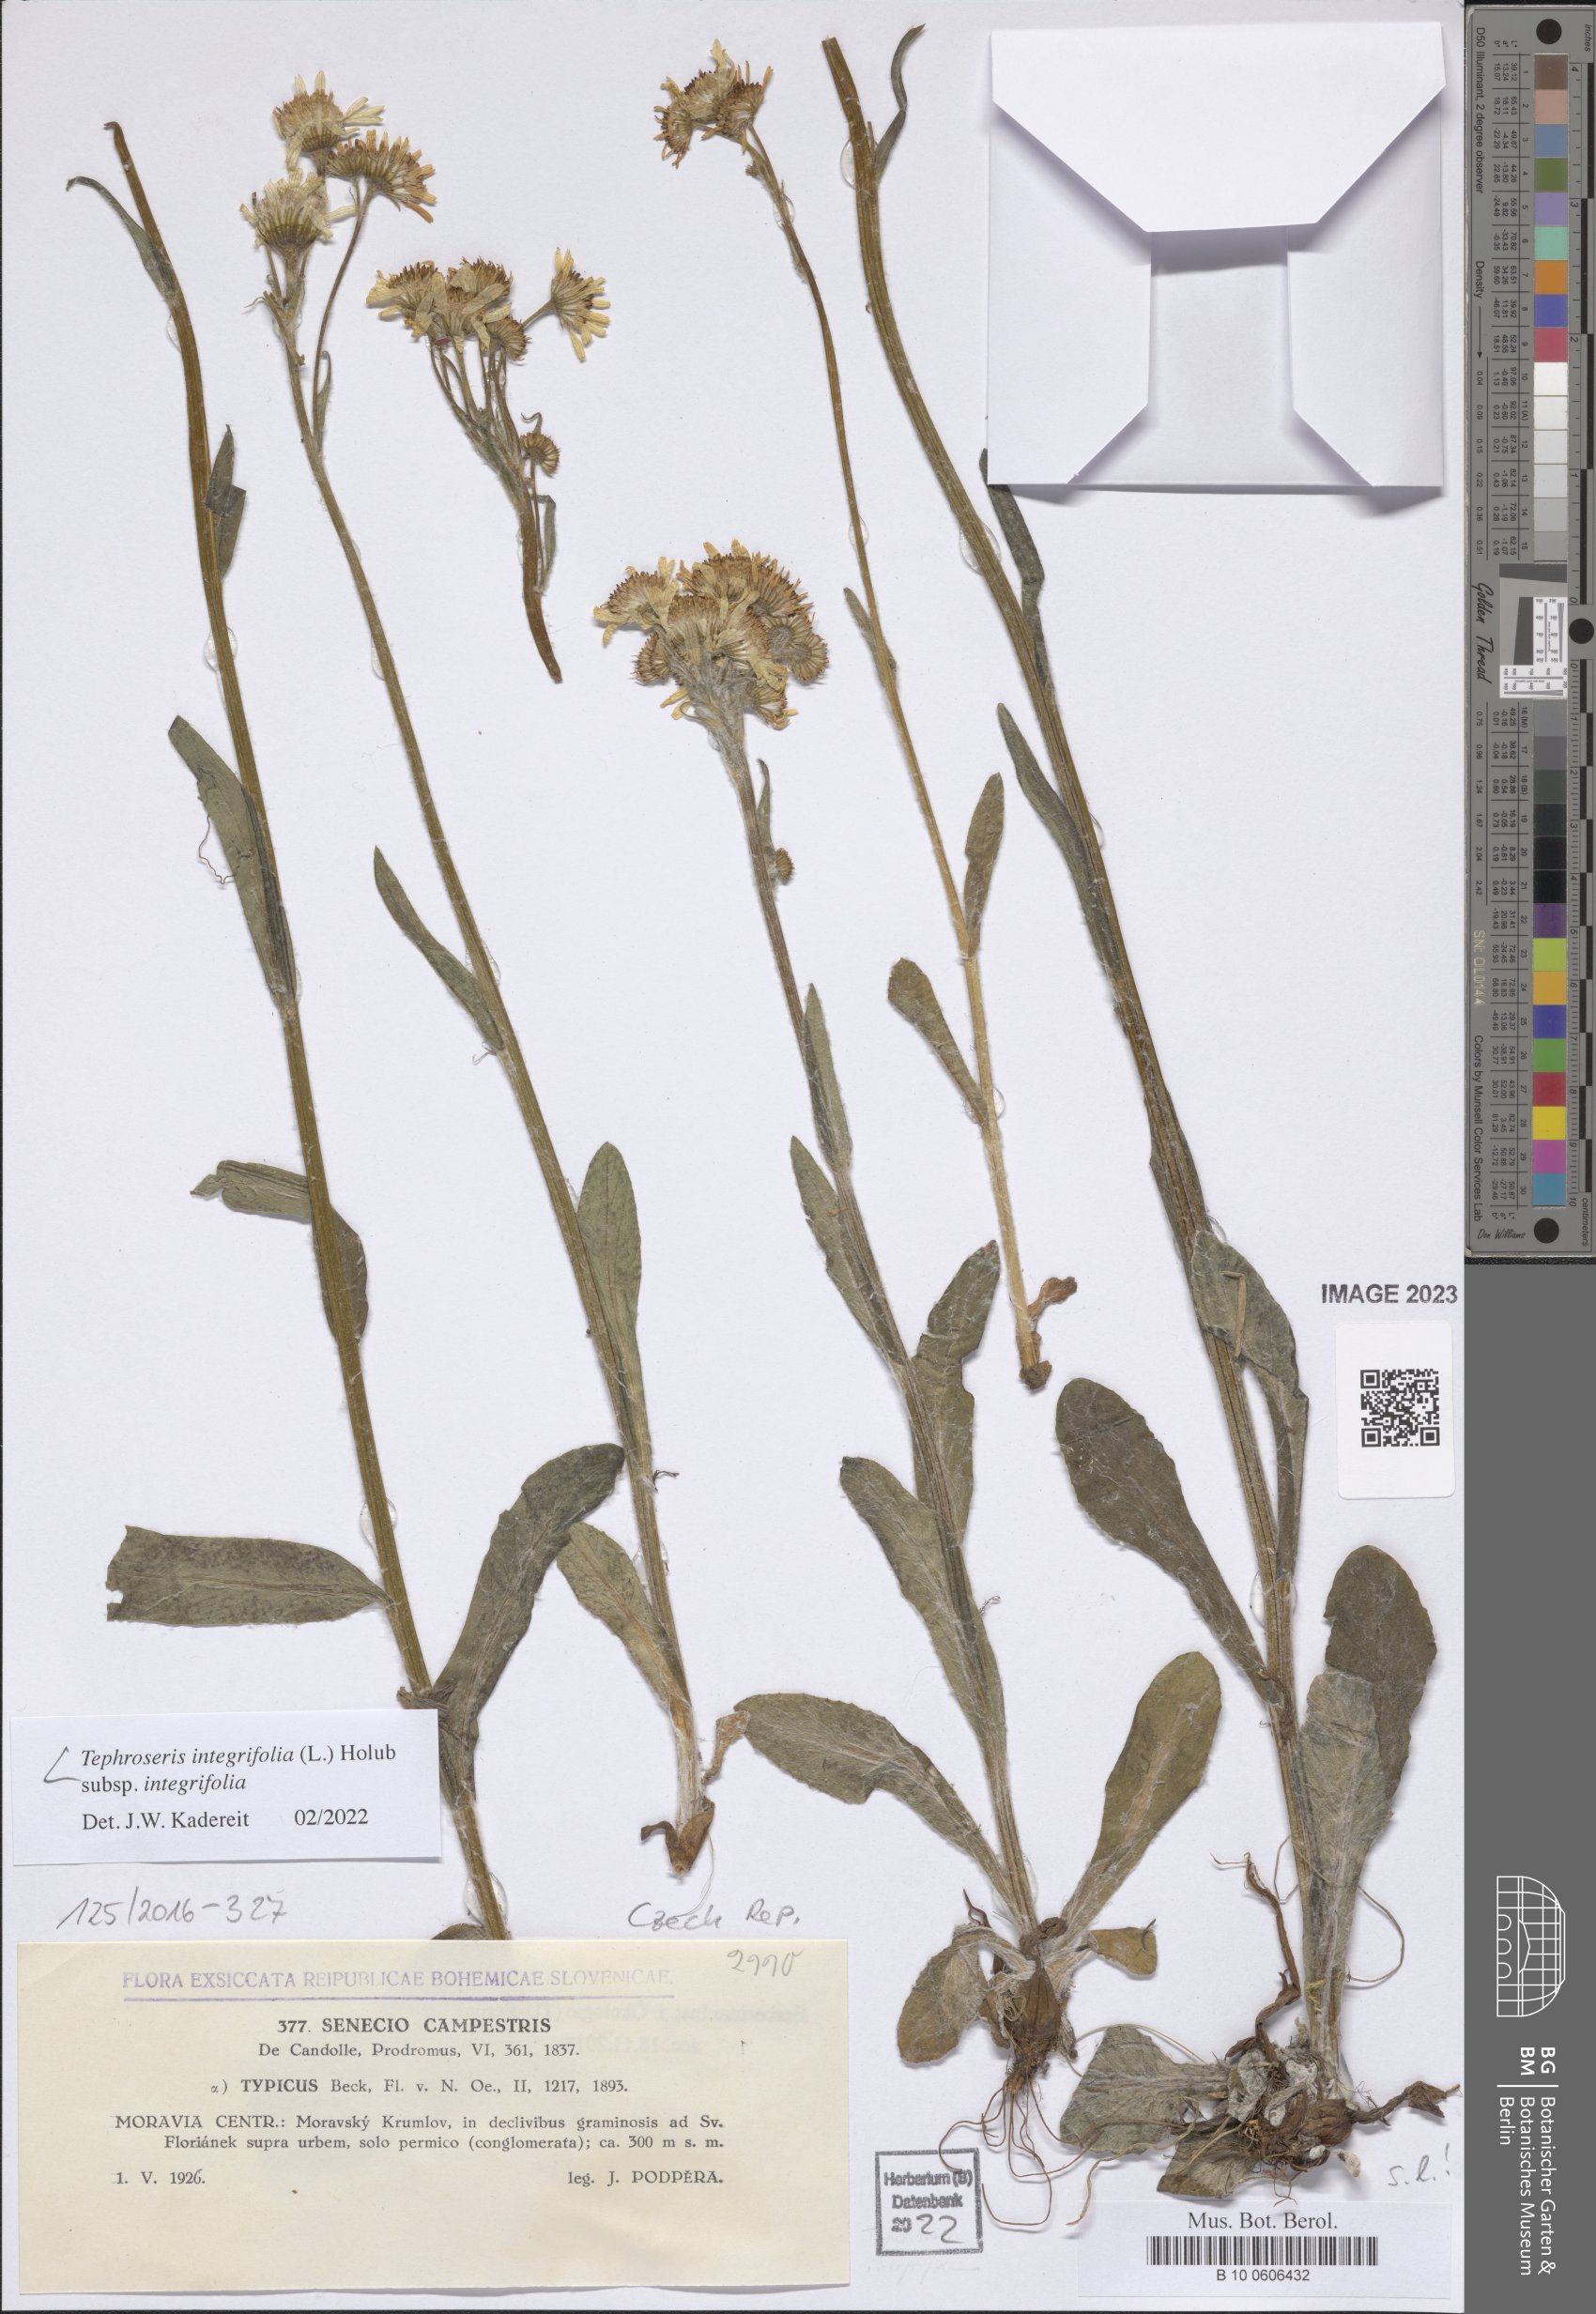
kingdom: Plantae
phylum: Tracheophyta
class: Magnoliopsida
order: Asterales
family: Asteraceae
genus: Tephroseris
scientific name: Tephroseris integrifolia
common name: Field fleawort
